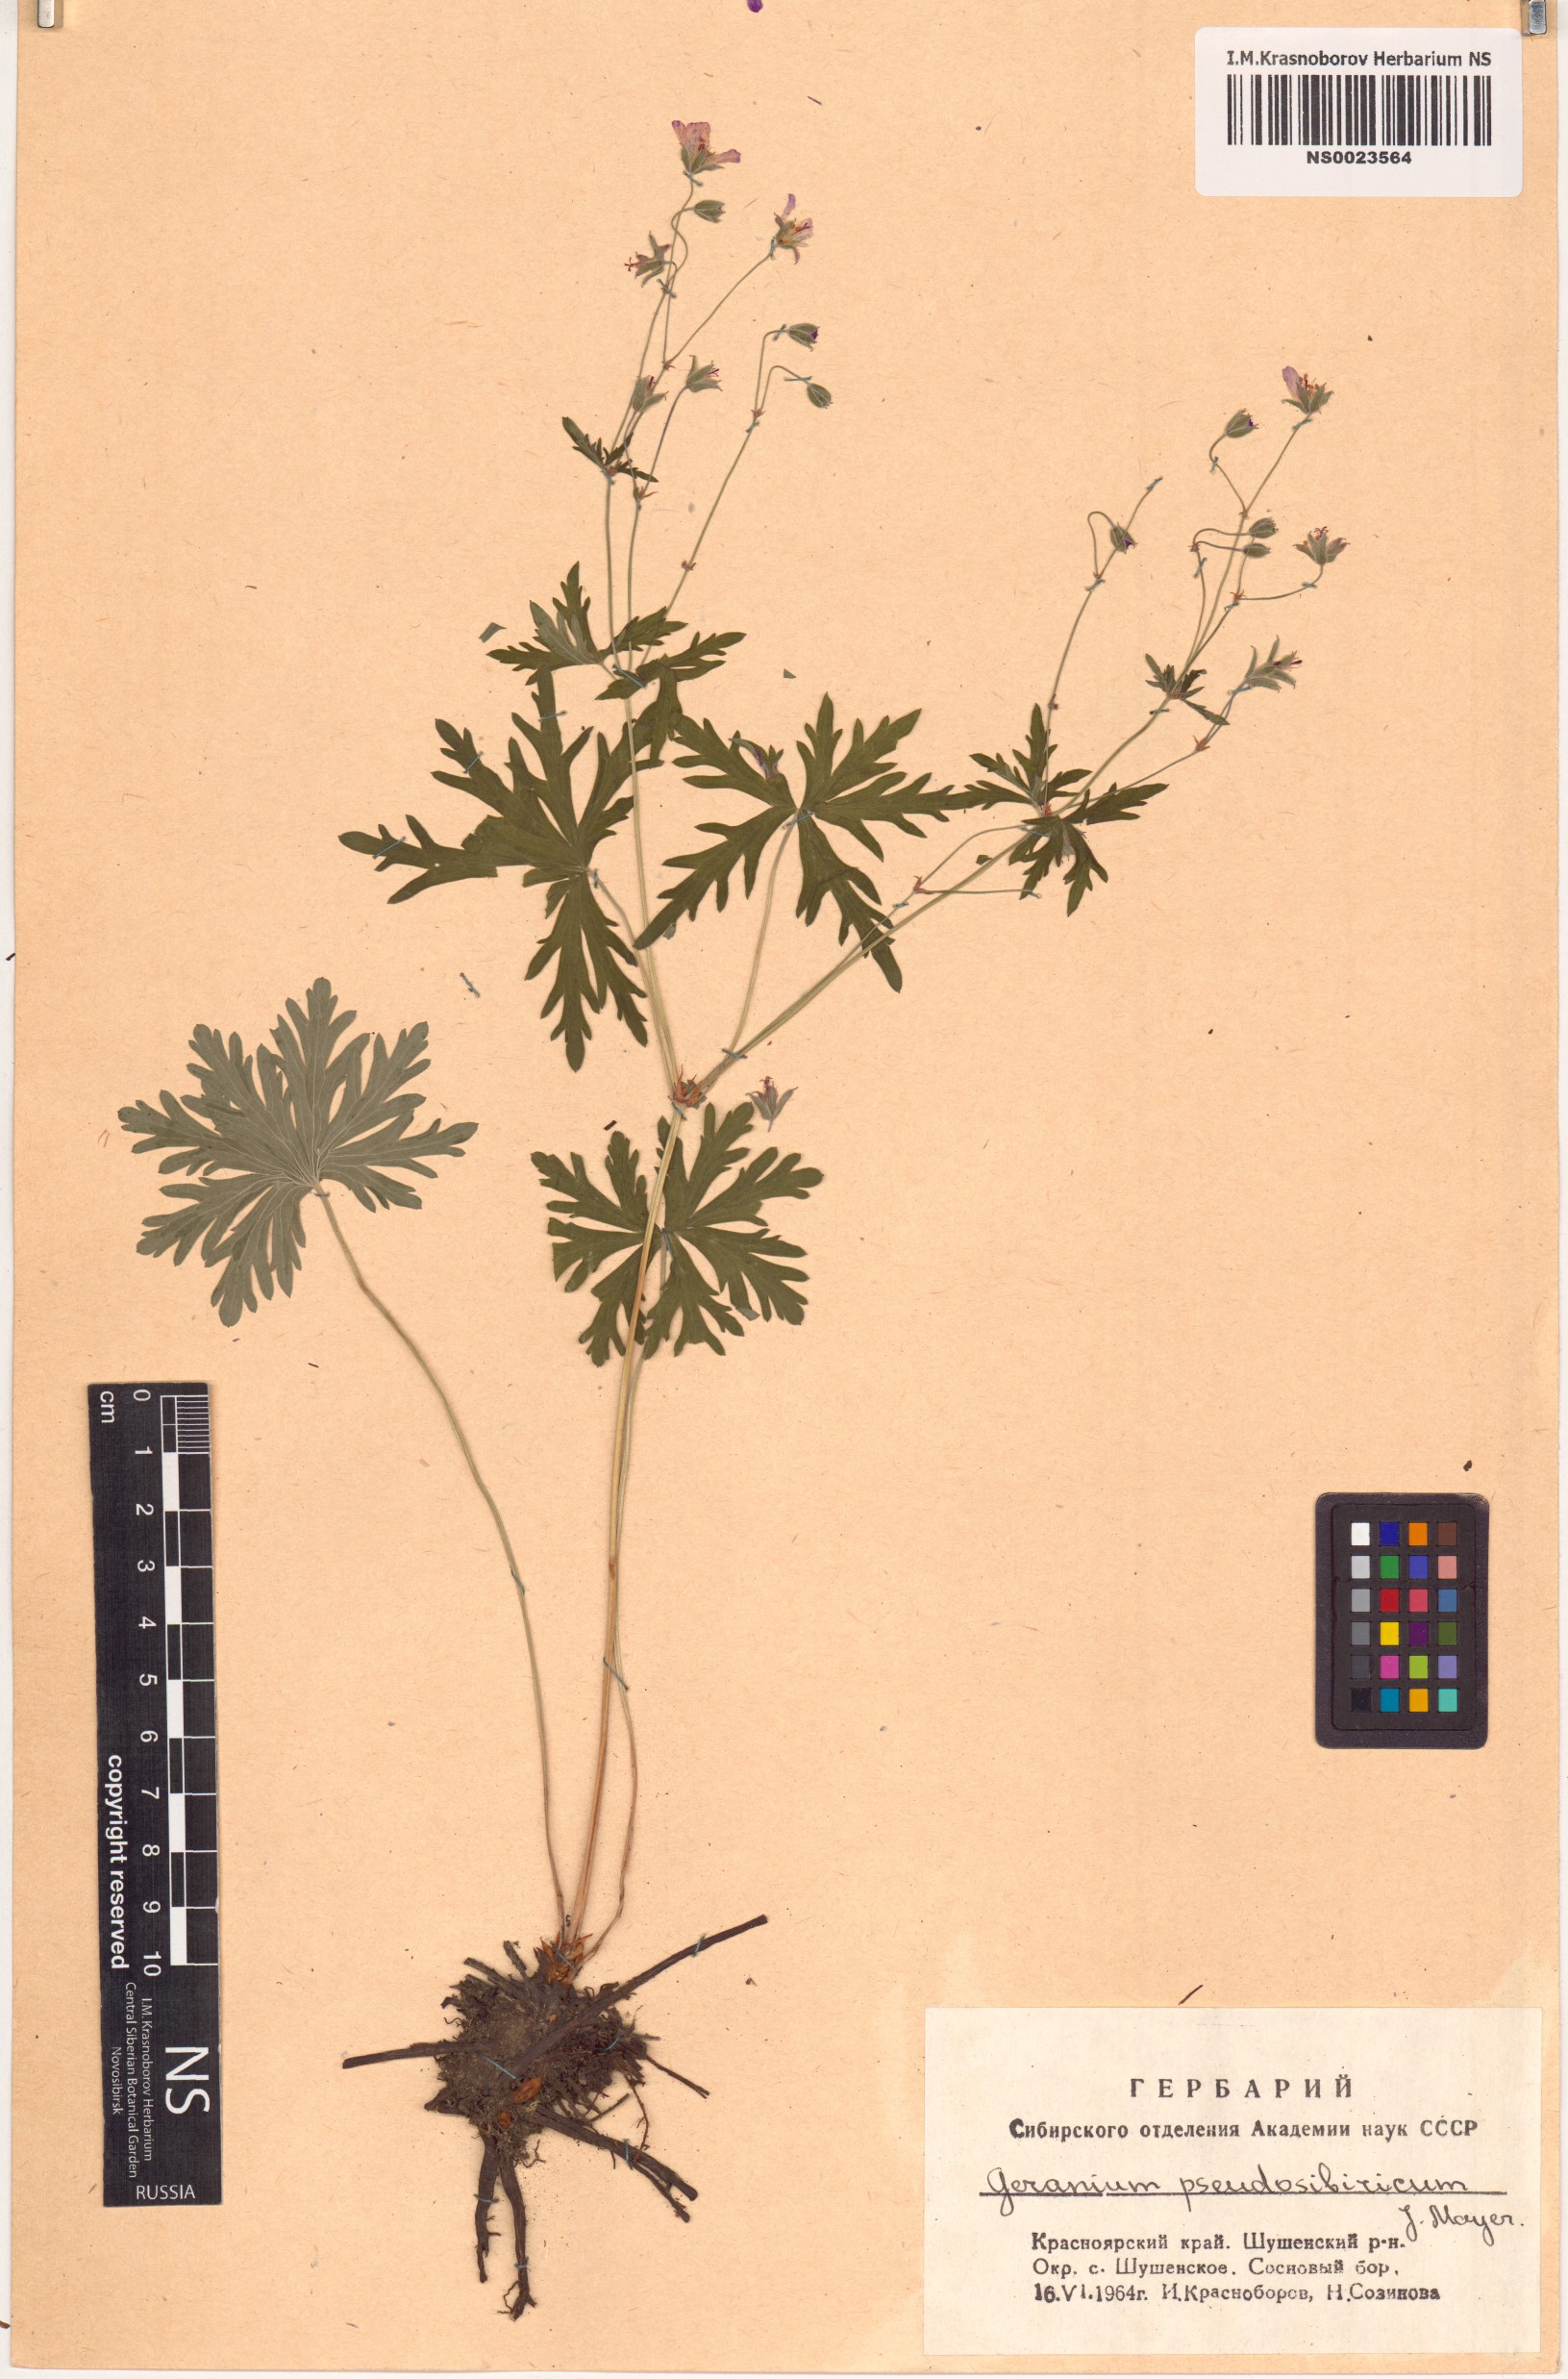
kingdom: Plantae
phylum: Tracheophyta
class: Magnoliopsida
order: Geraniales
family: Geraniaceae
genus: Geranium
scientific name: Geranium pseudosibiricum
